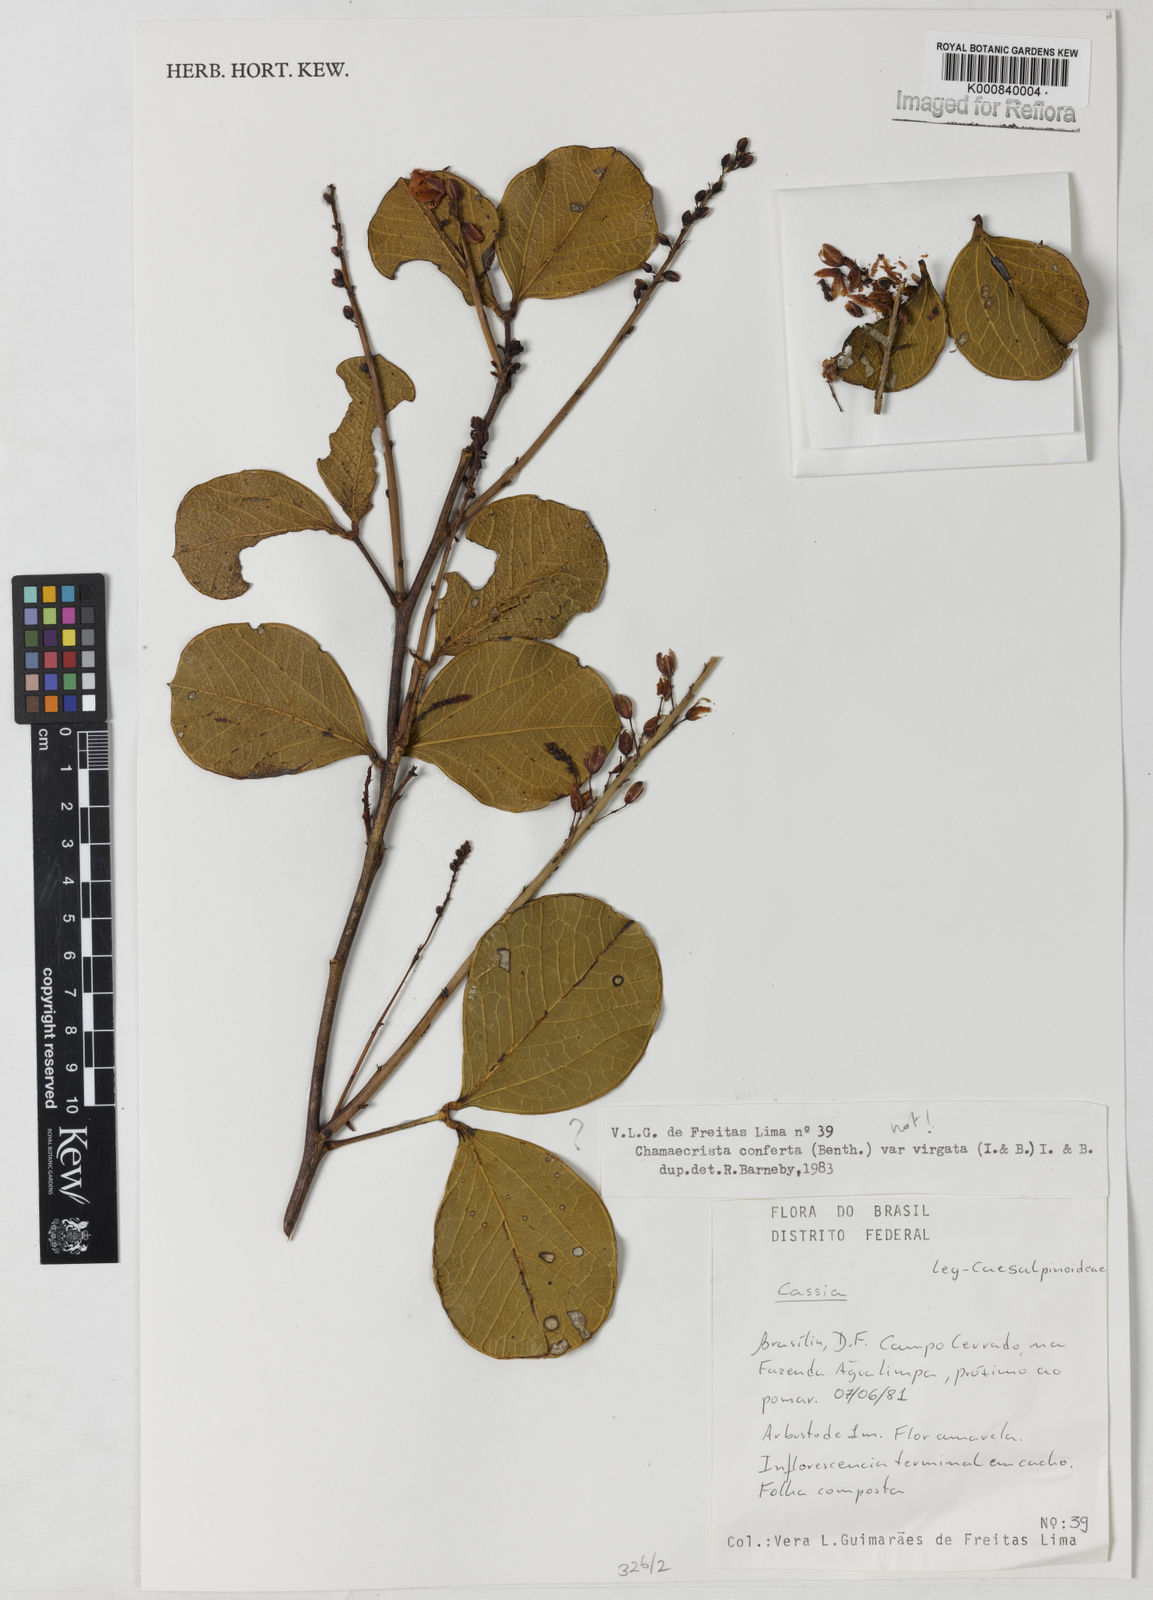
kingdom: Plantae
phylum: Tracheophyta
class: Magnoliopsida
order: Fabales
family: Fabaceae
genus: Chamaecrista
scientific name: Chamaecrista
